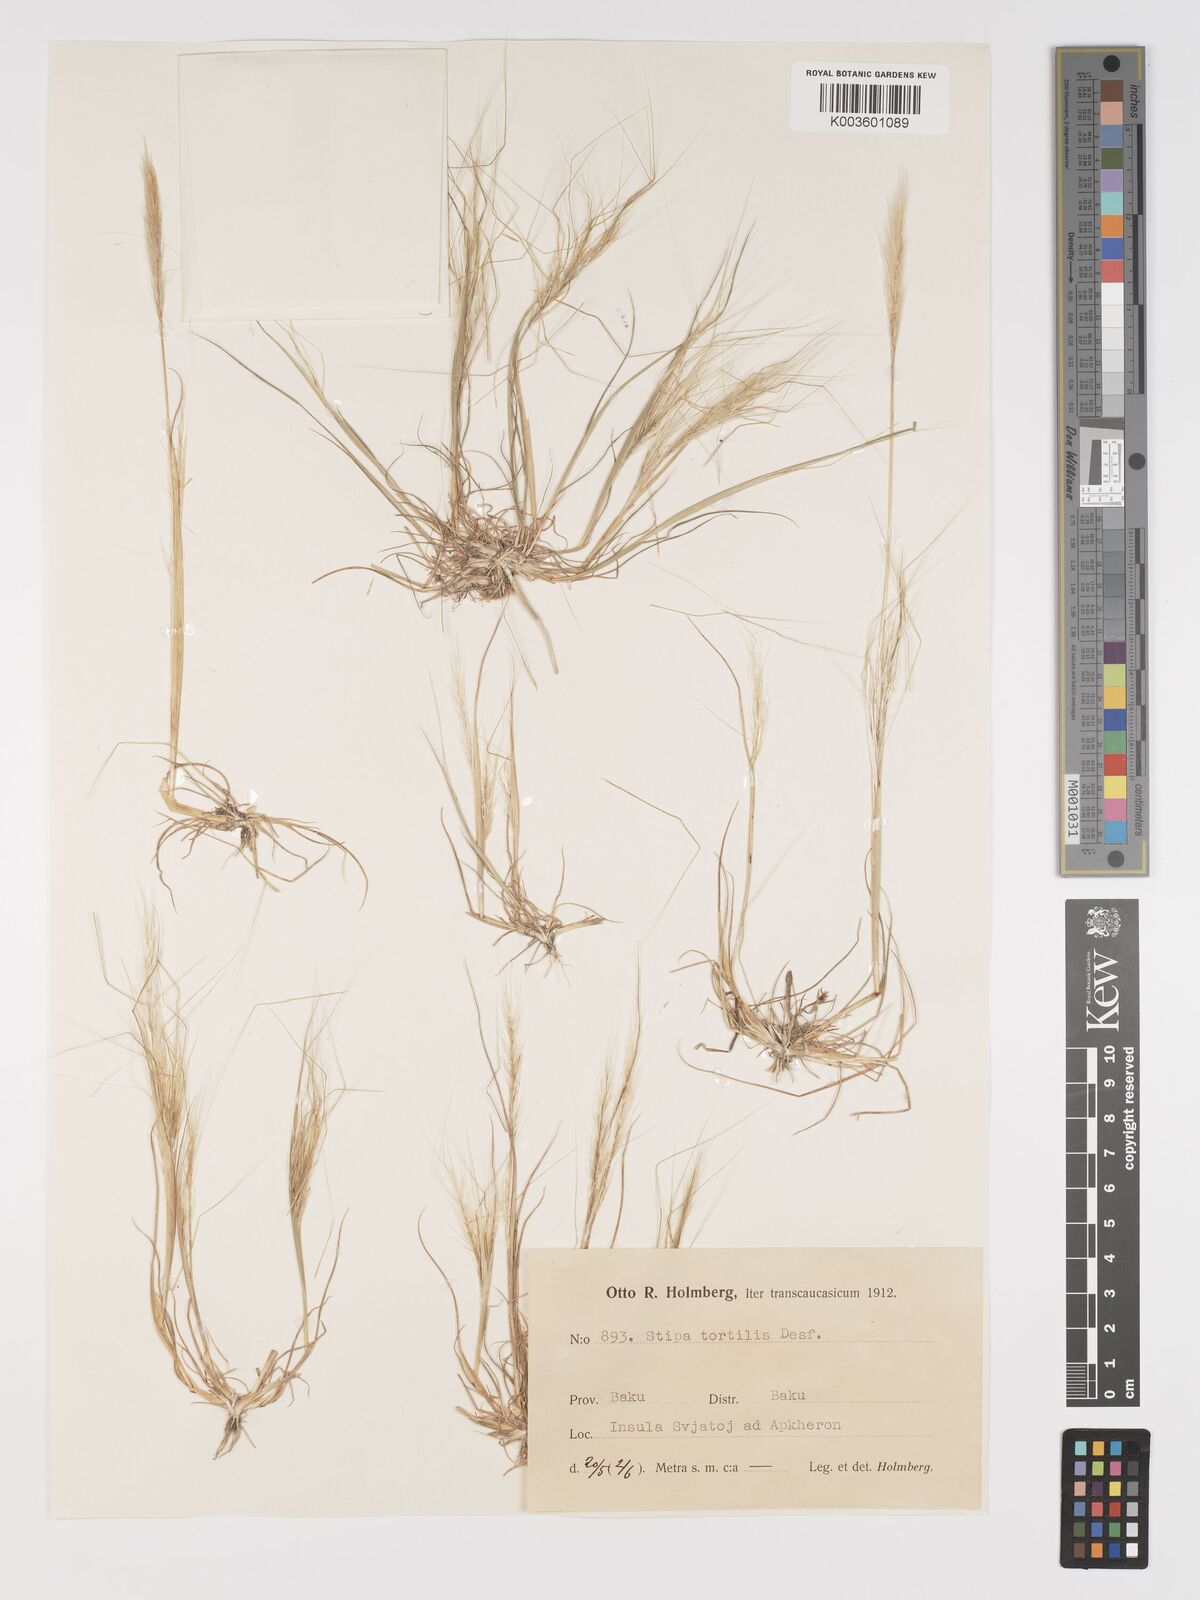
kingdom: Plantae
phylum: Tracheophyta
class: Liliopsida
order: Poales
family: Poaceae
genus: Stipa
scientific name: Stipa dregeana
